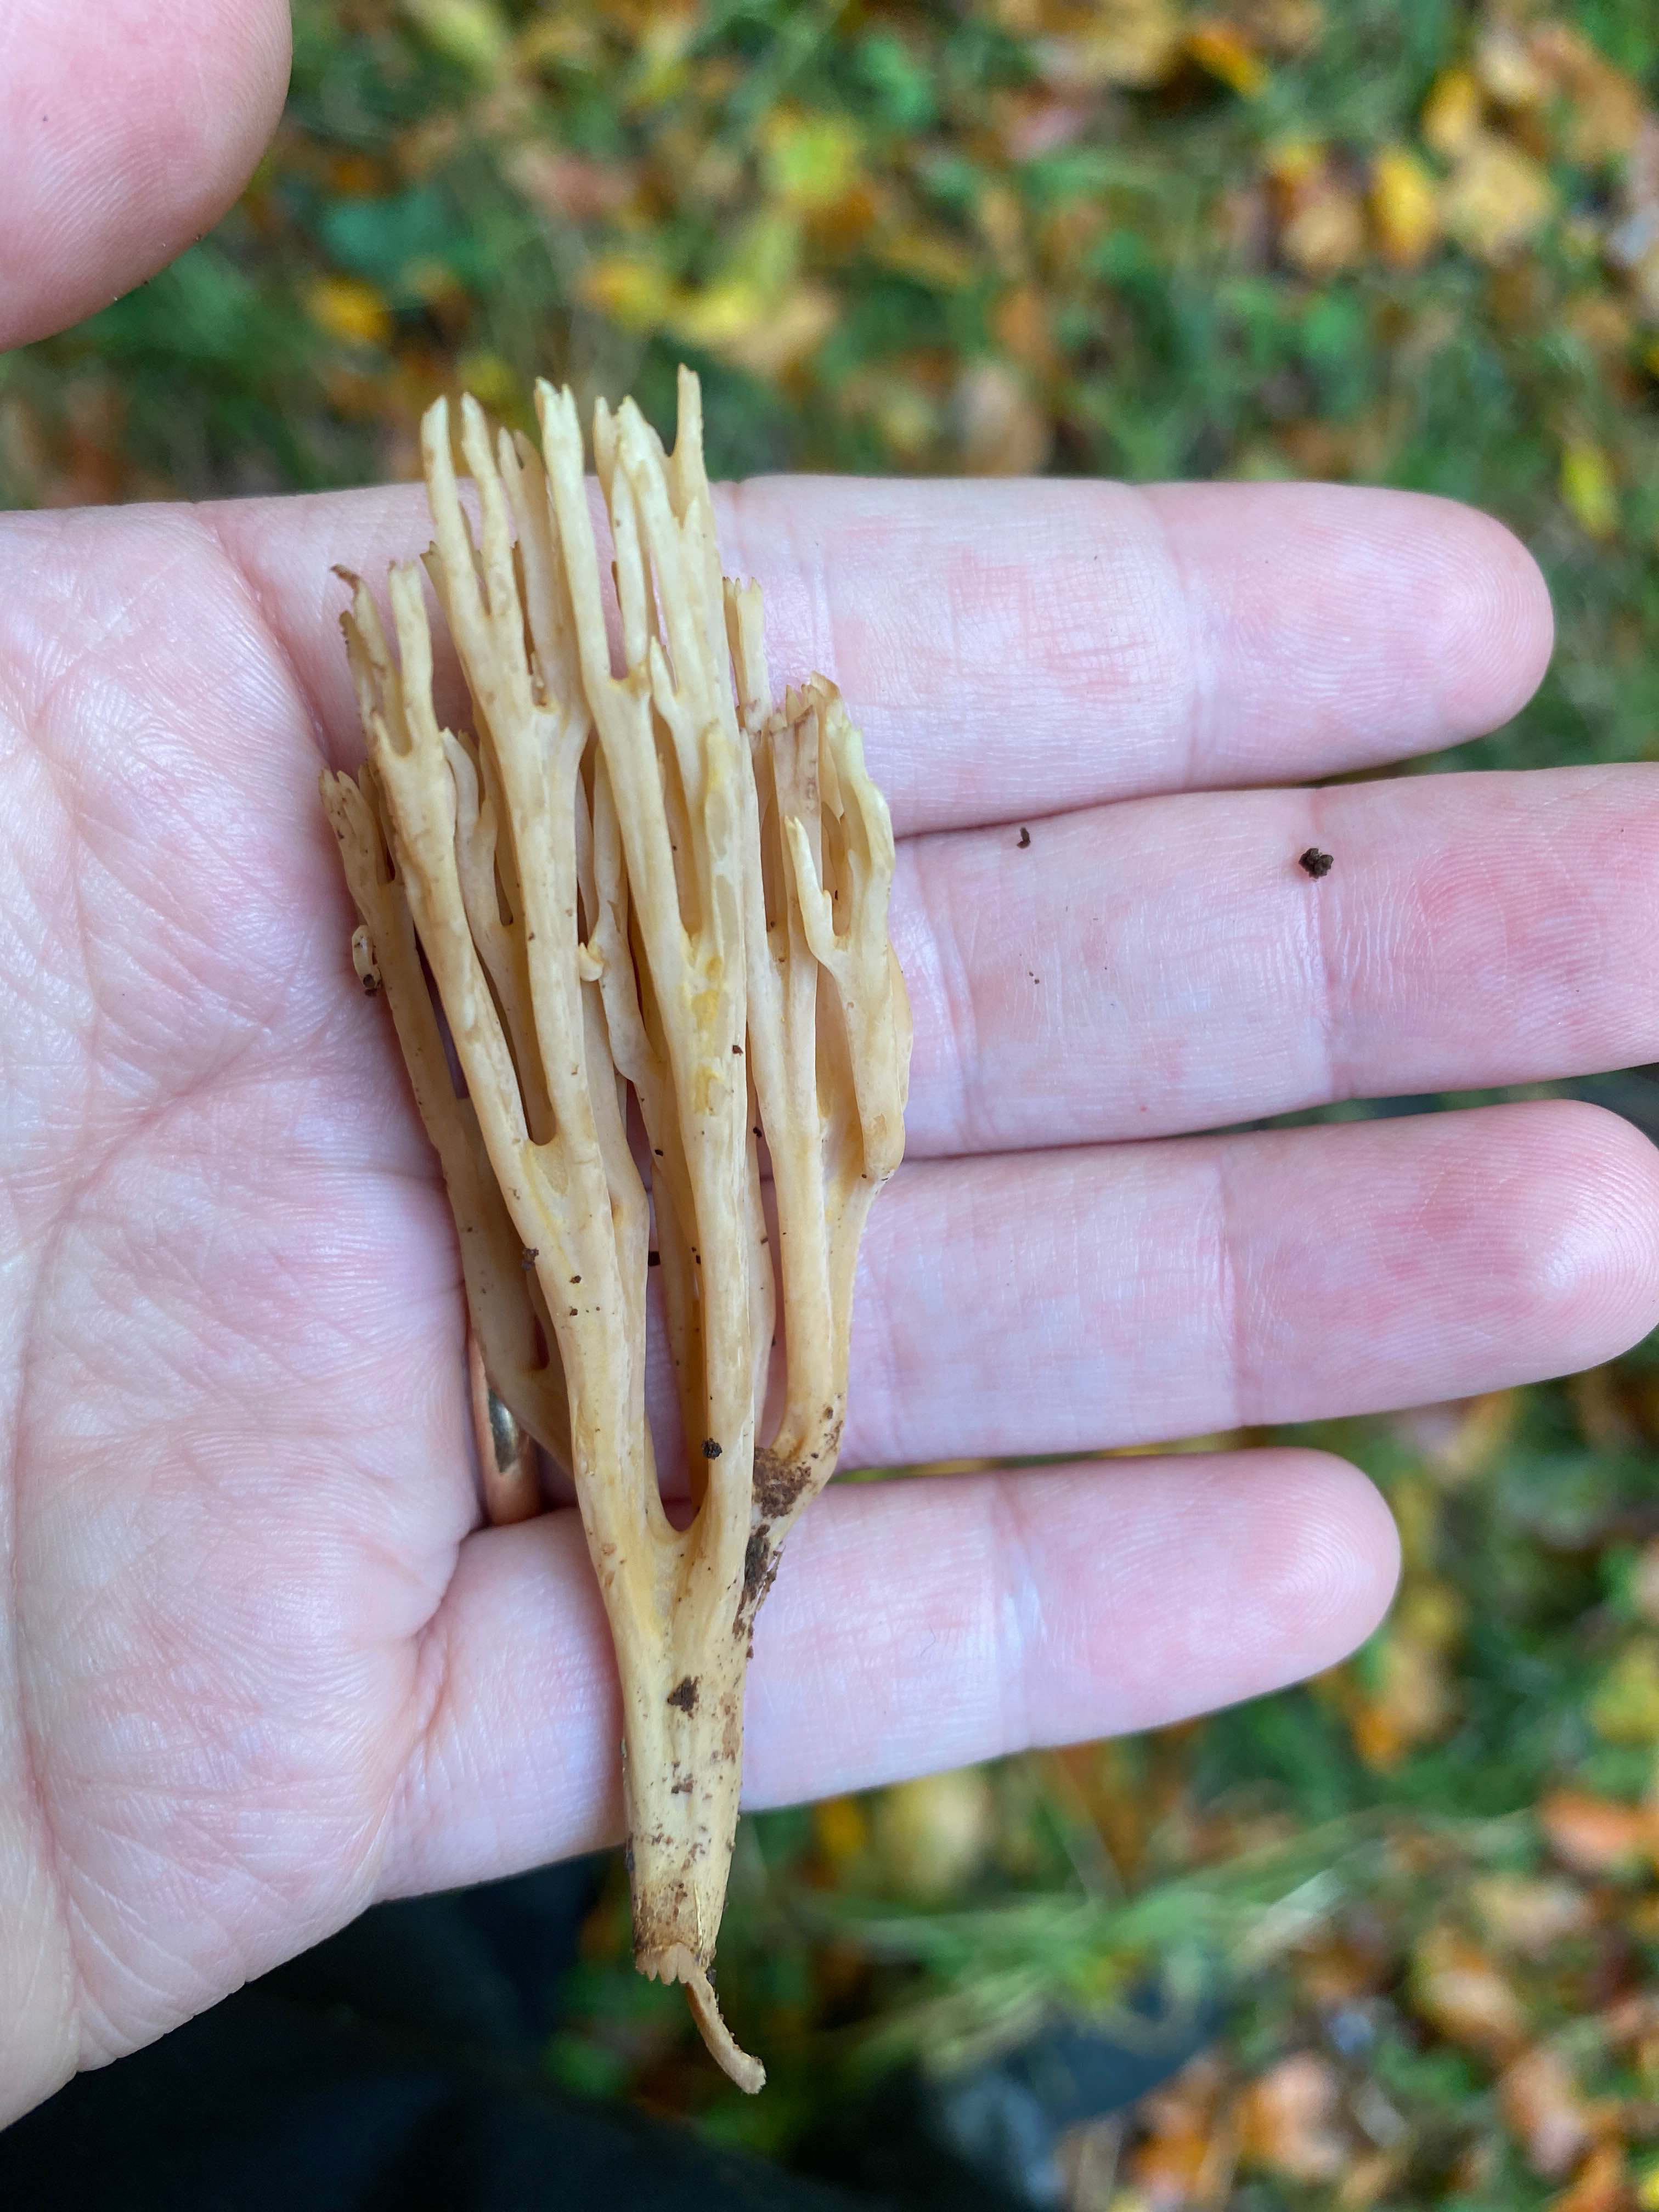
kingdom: Fungi
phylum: Basidiomycota
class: Agaricomycetes
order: Gomphales
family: Gomphaceae
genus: Ramaria
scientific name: Ramaria stricta
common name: rank koralsvamp
